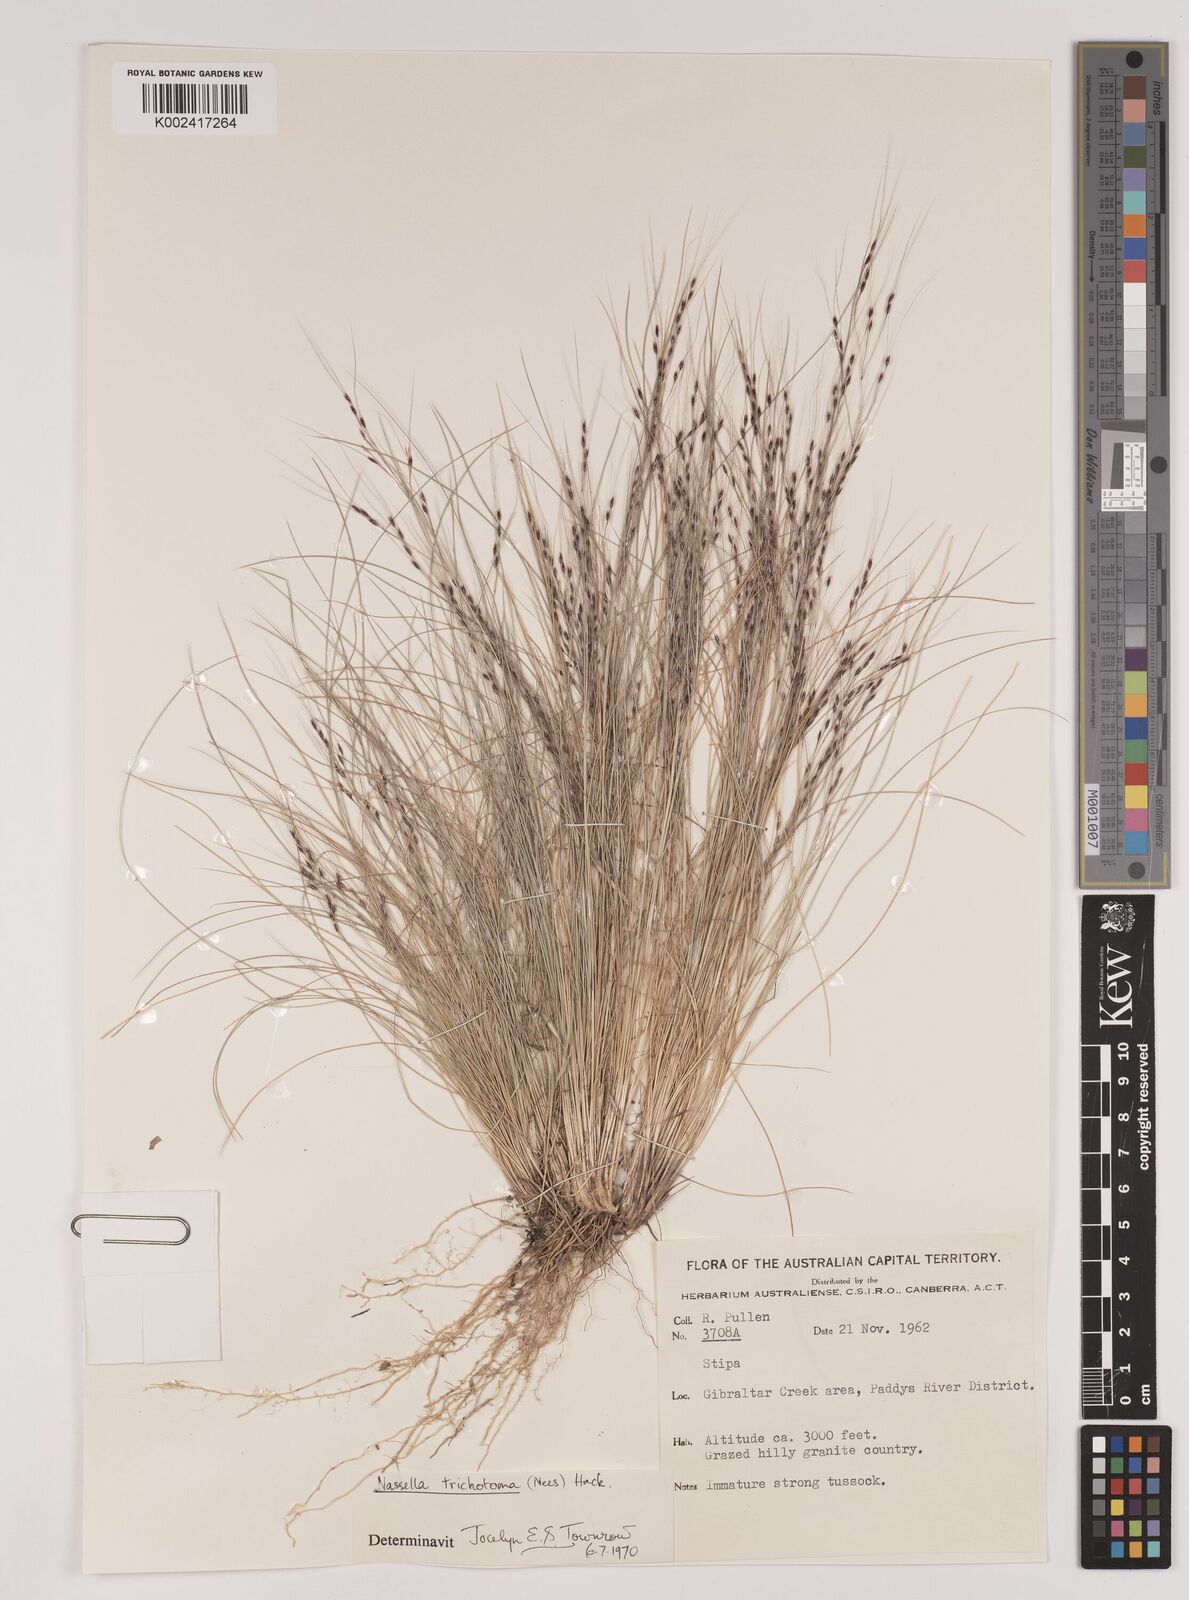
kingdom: Plantae
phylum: Tracheophyta
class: Liliopsida
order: Poales
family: Poaceae
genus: Nassella
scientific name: Nassella trichotoma
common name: Serrated tussock grass
